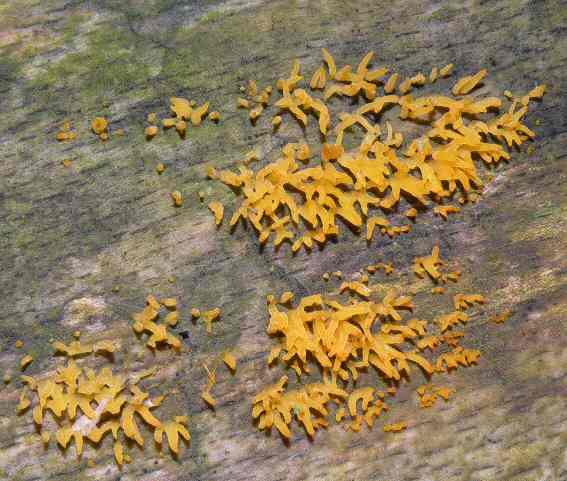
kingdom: Fungi
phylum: Basidiomycota
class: Dacrymycetes
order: Dacrymycetales
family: Dacrymycetaceae
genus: Calocera
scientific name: Calocera cornea
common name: liden guldgaffel
